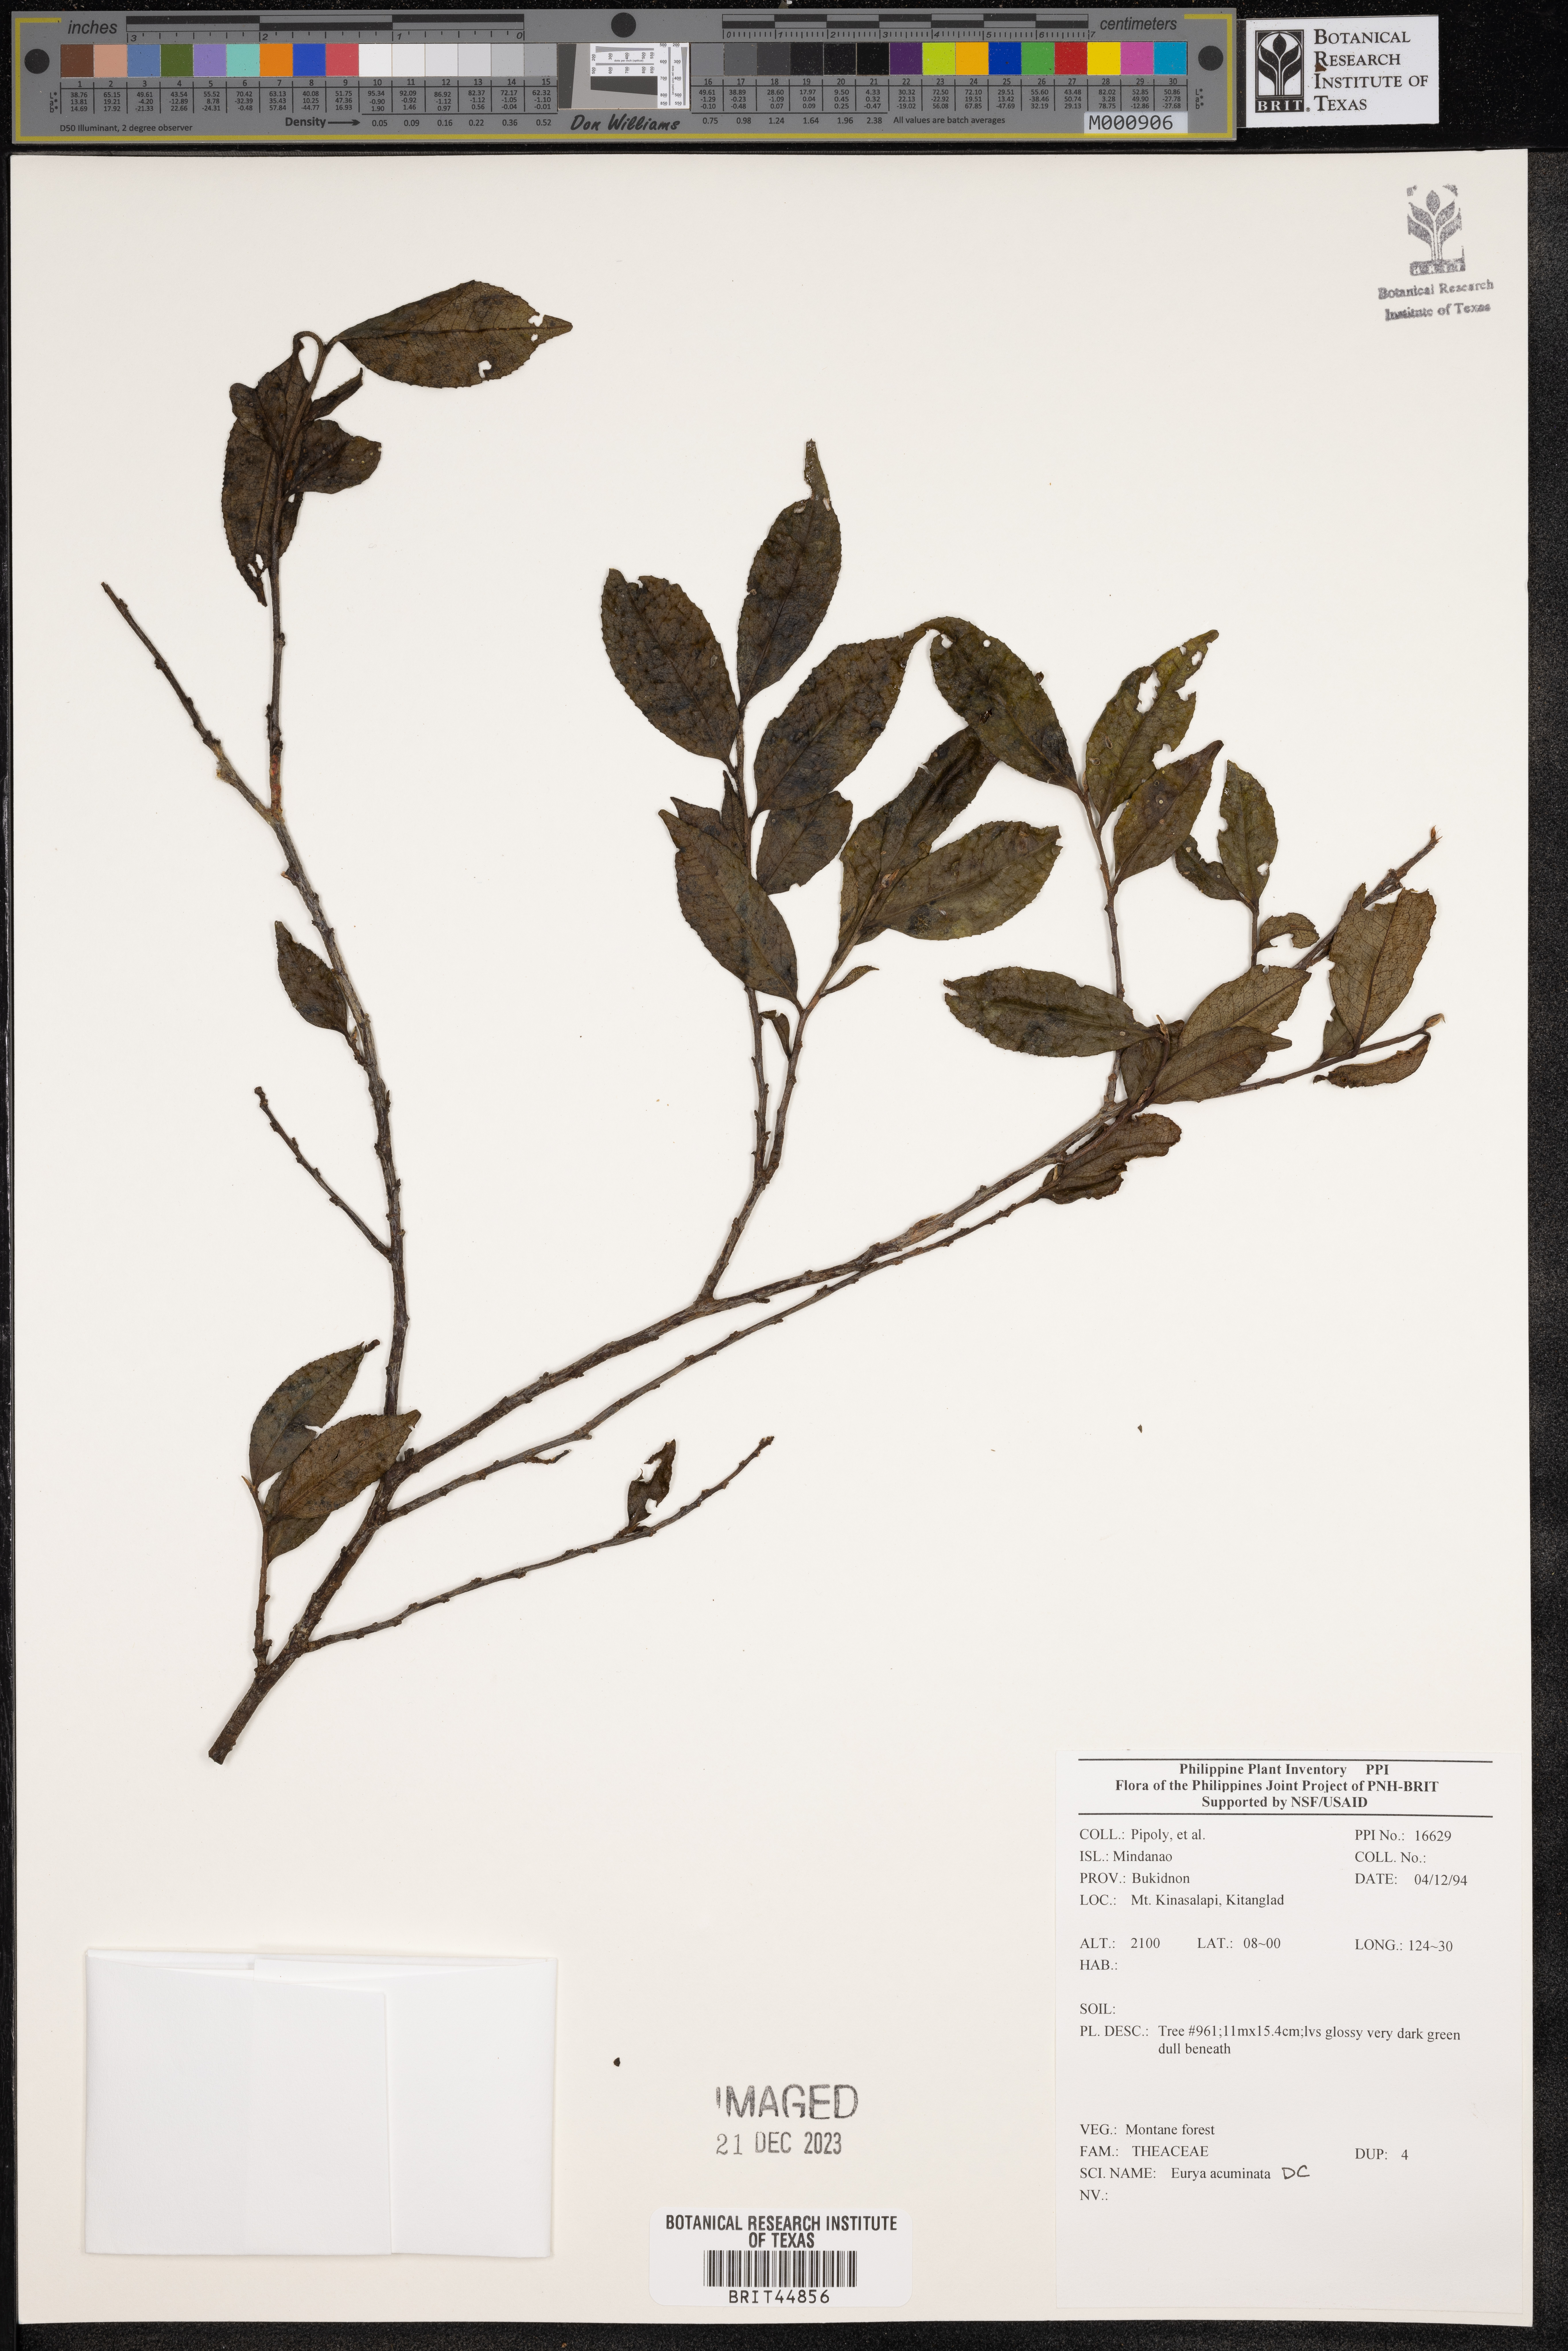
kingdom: Plantae
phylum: Tracheophyta
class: Magnoliopsida
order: Ericales
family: Pentaphylacaceae
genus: Eurya
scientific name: Eurya acuminata
